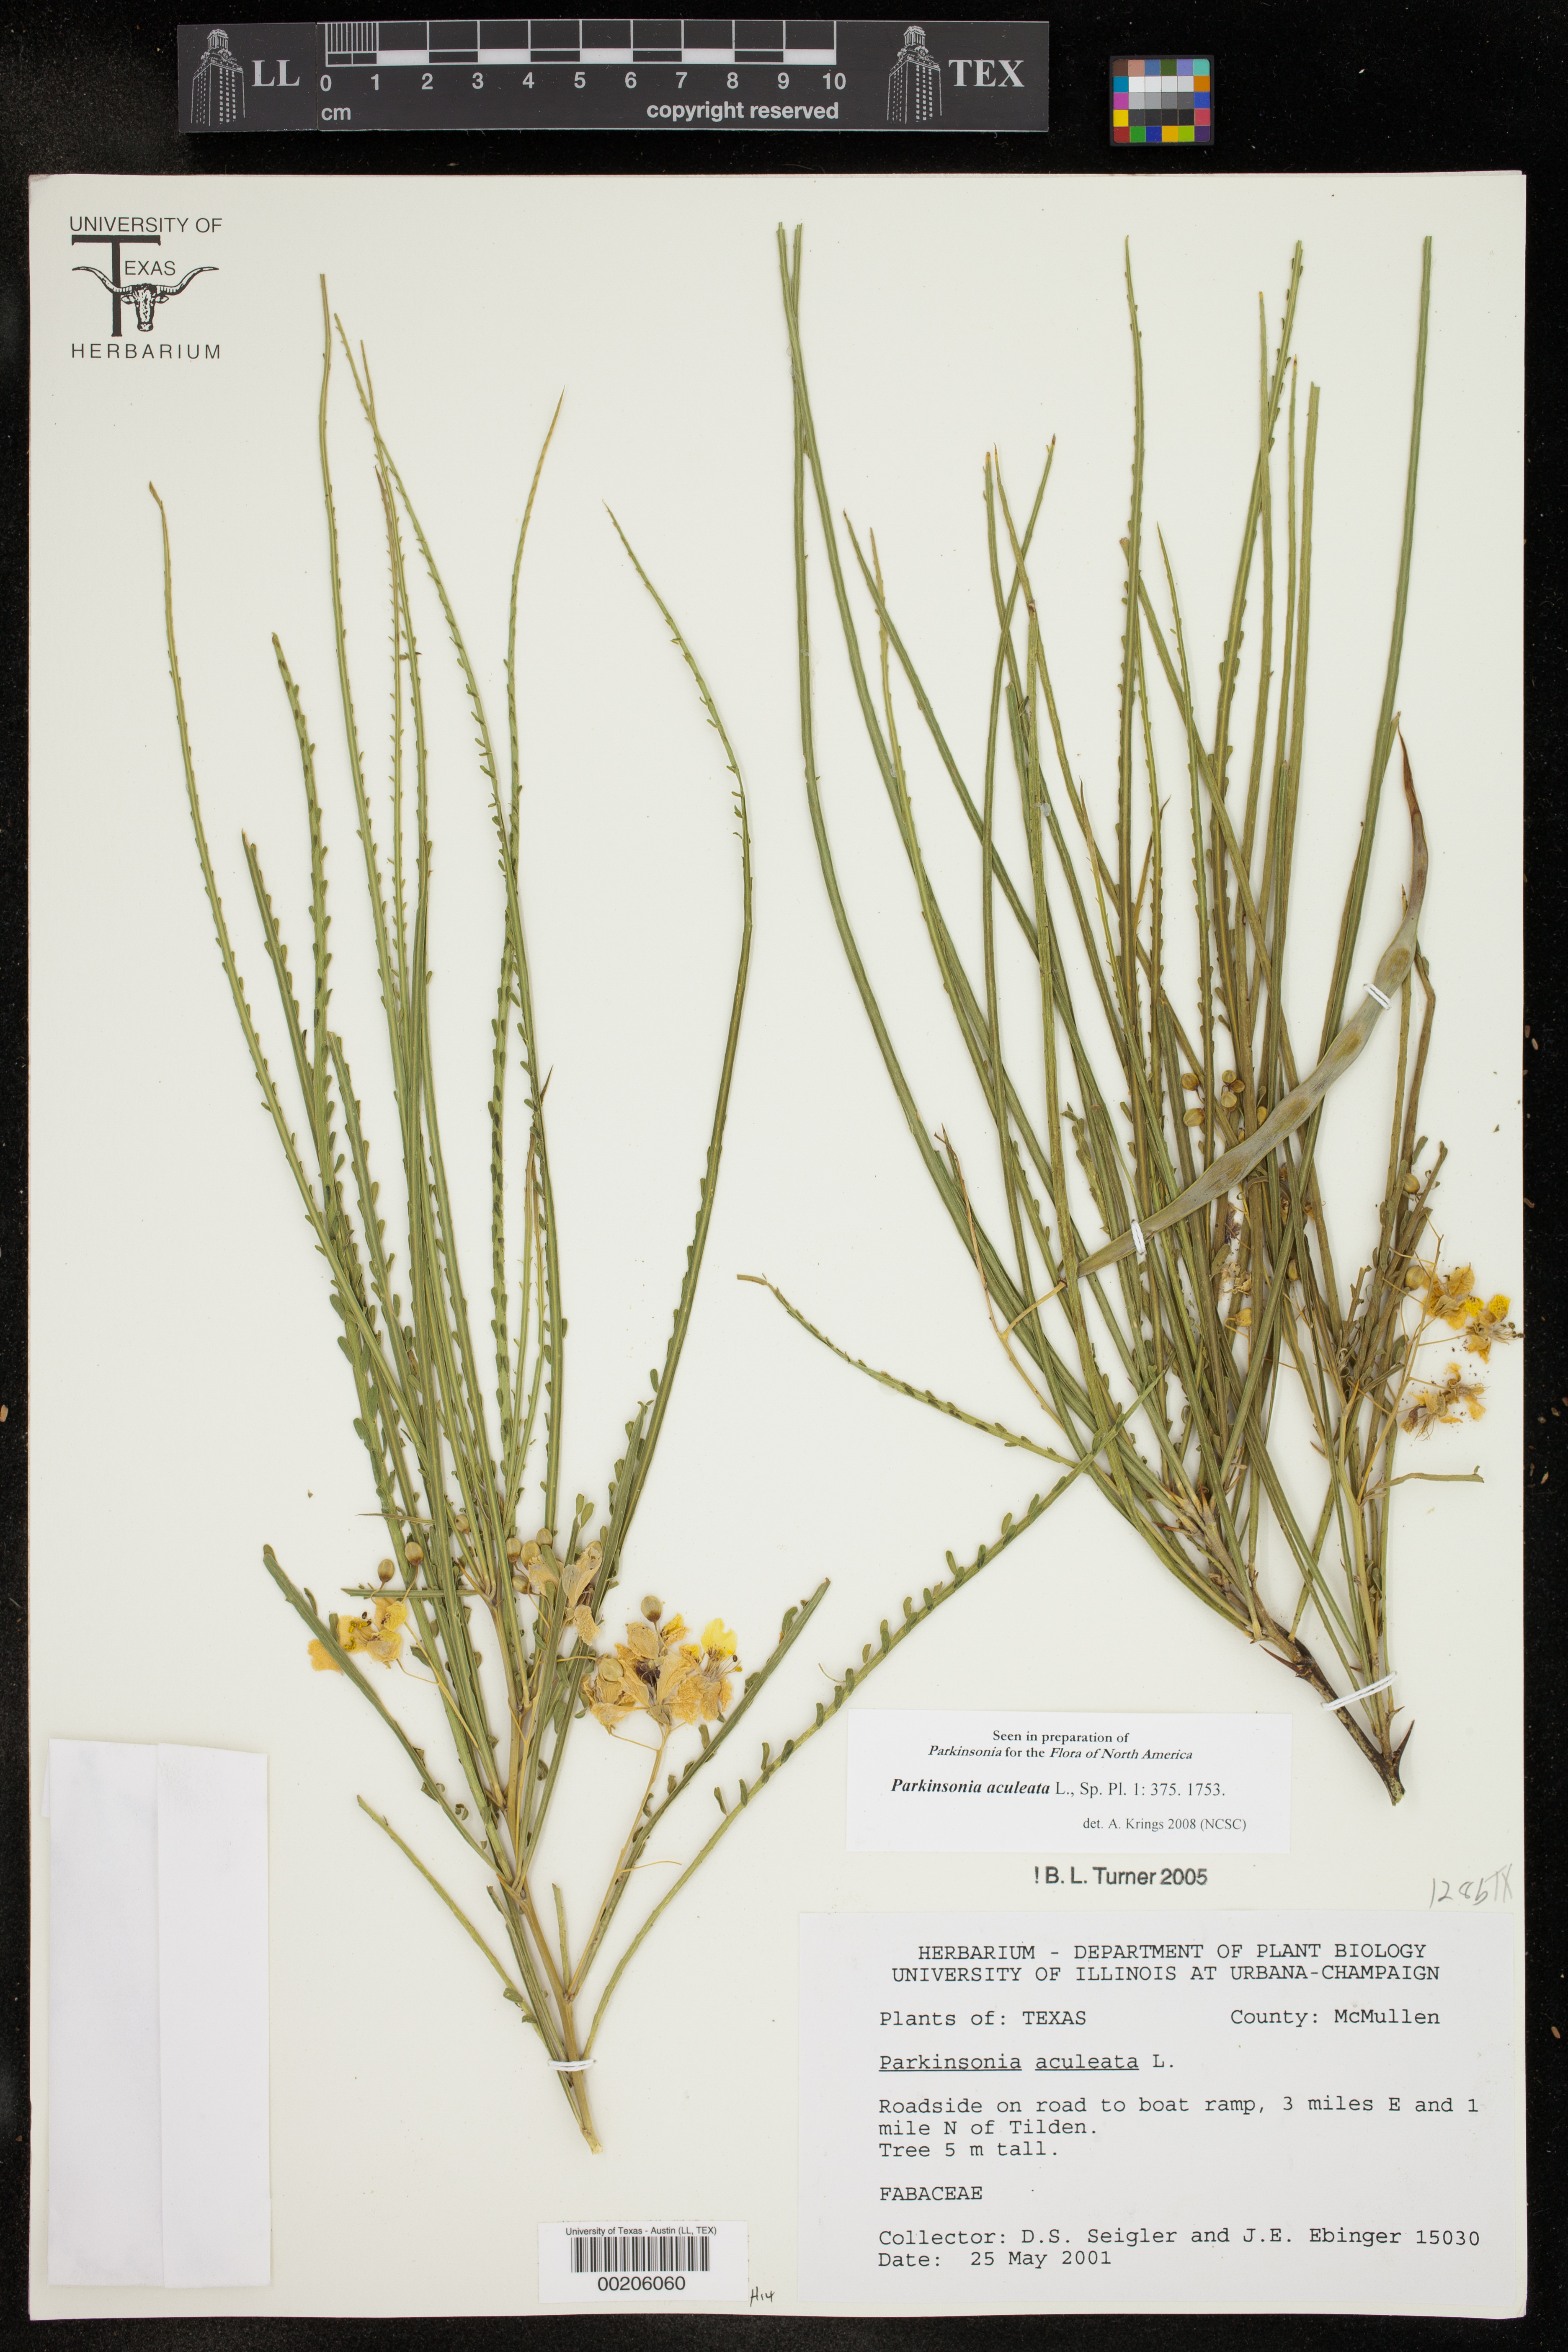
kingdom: Plantae
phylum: Tracheophyta
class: Magnoliopsida
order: Fabales
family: Fabaceae
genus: Parkinsonia
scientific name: Parkinsonia aculeata
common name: Jerusalem thorn
